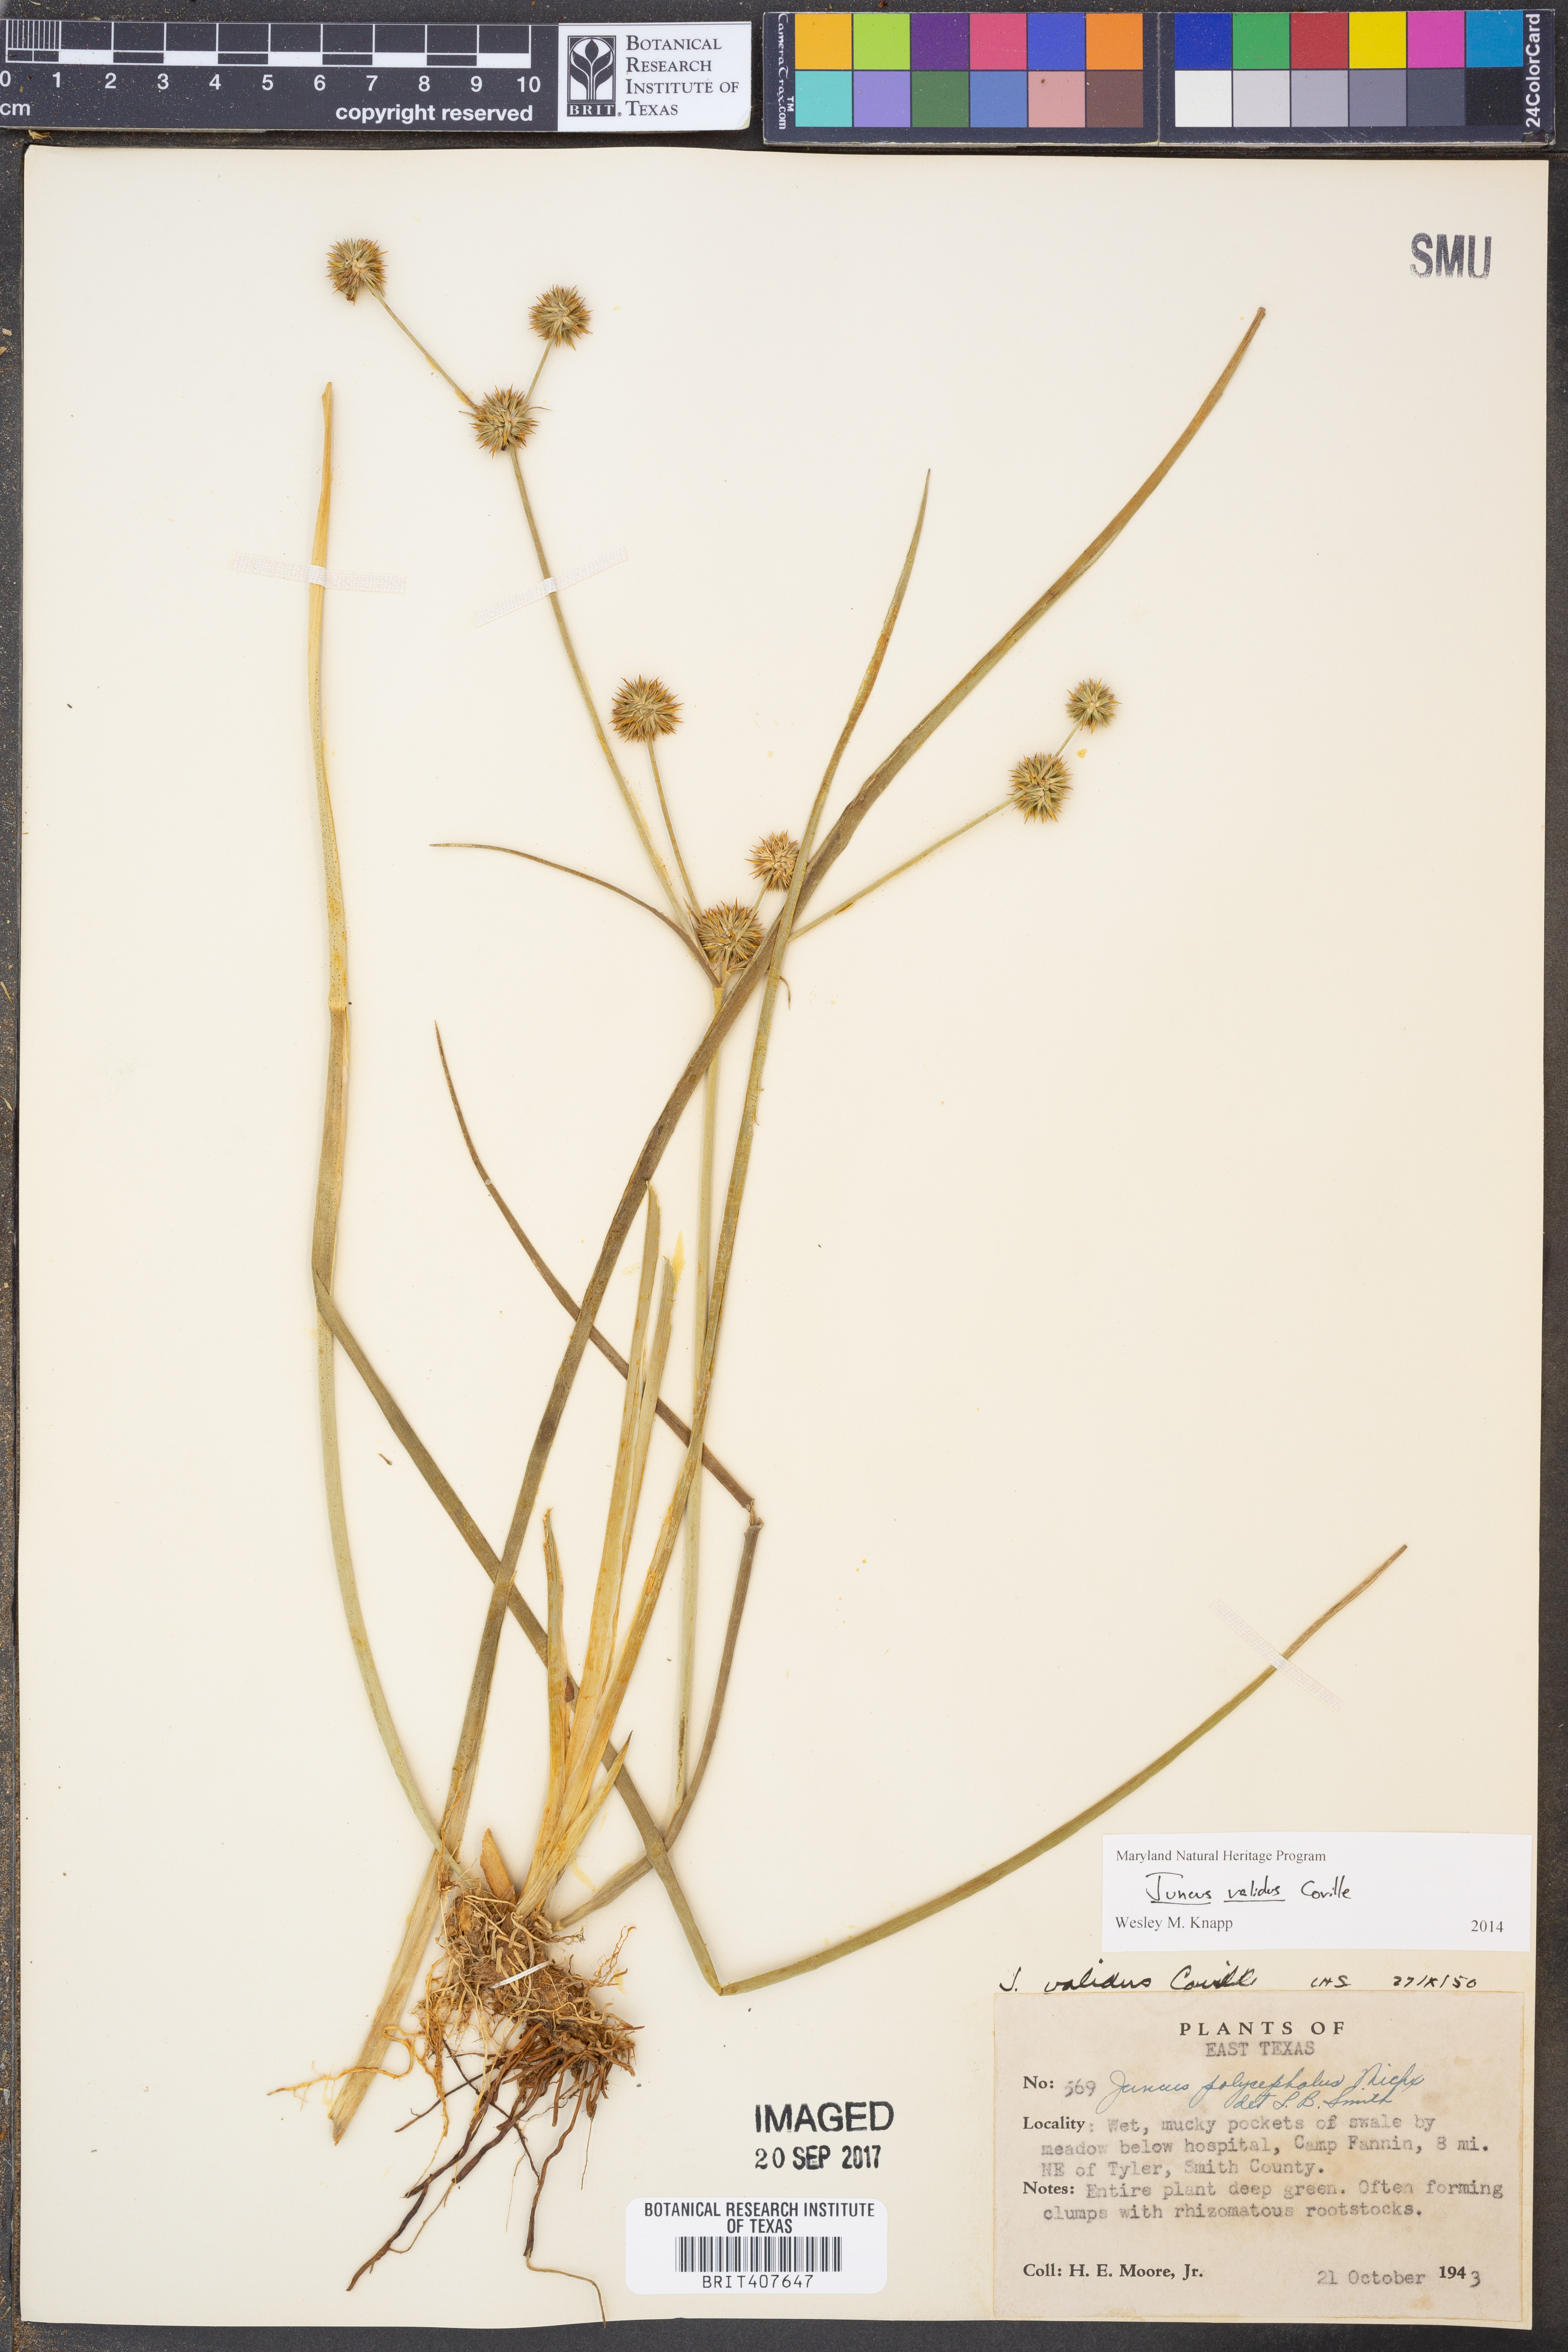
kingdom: Plantae
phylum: Tracheophyta
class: Liliopsida
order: Poales
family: Juncaceae
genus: Juncus
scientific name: Juncus validus
